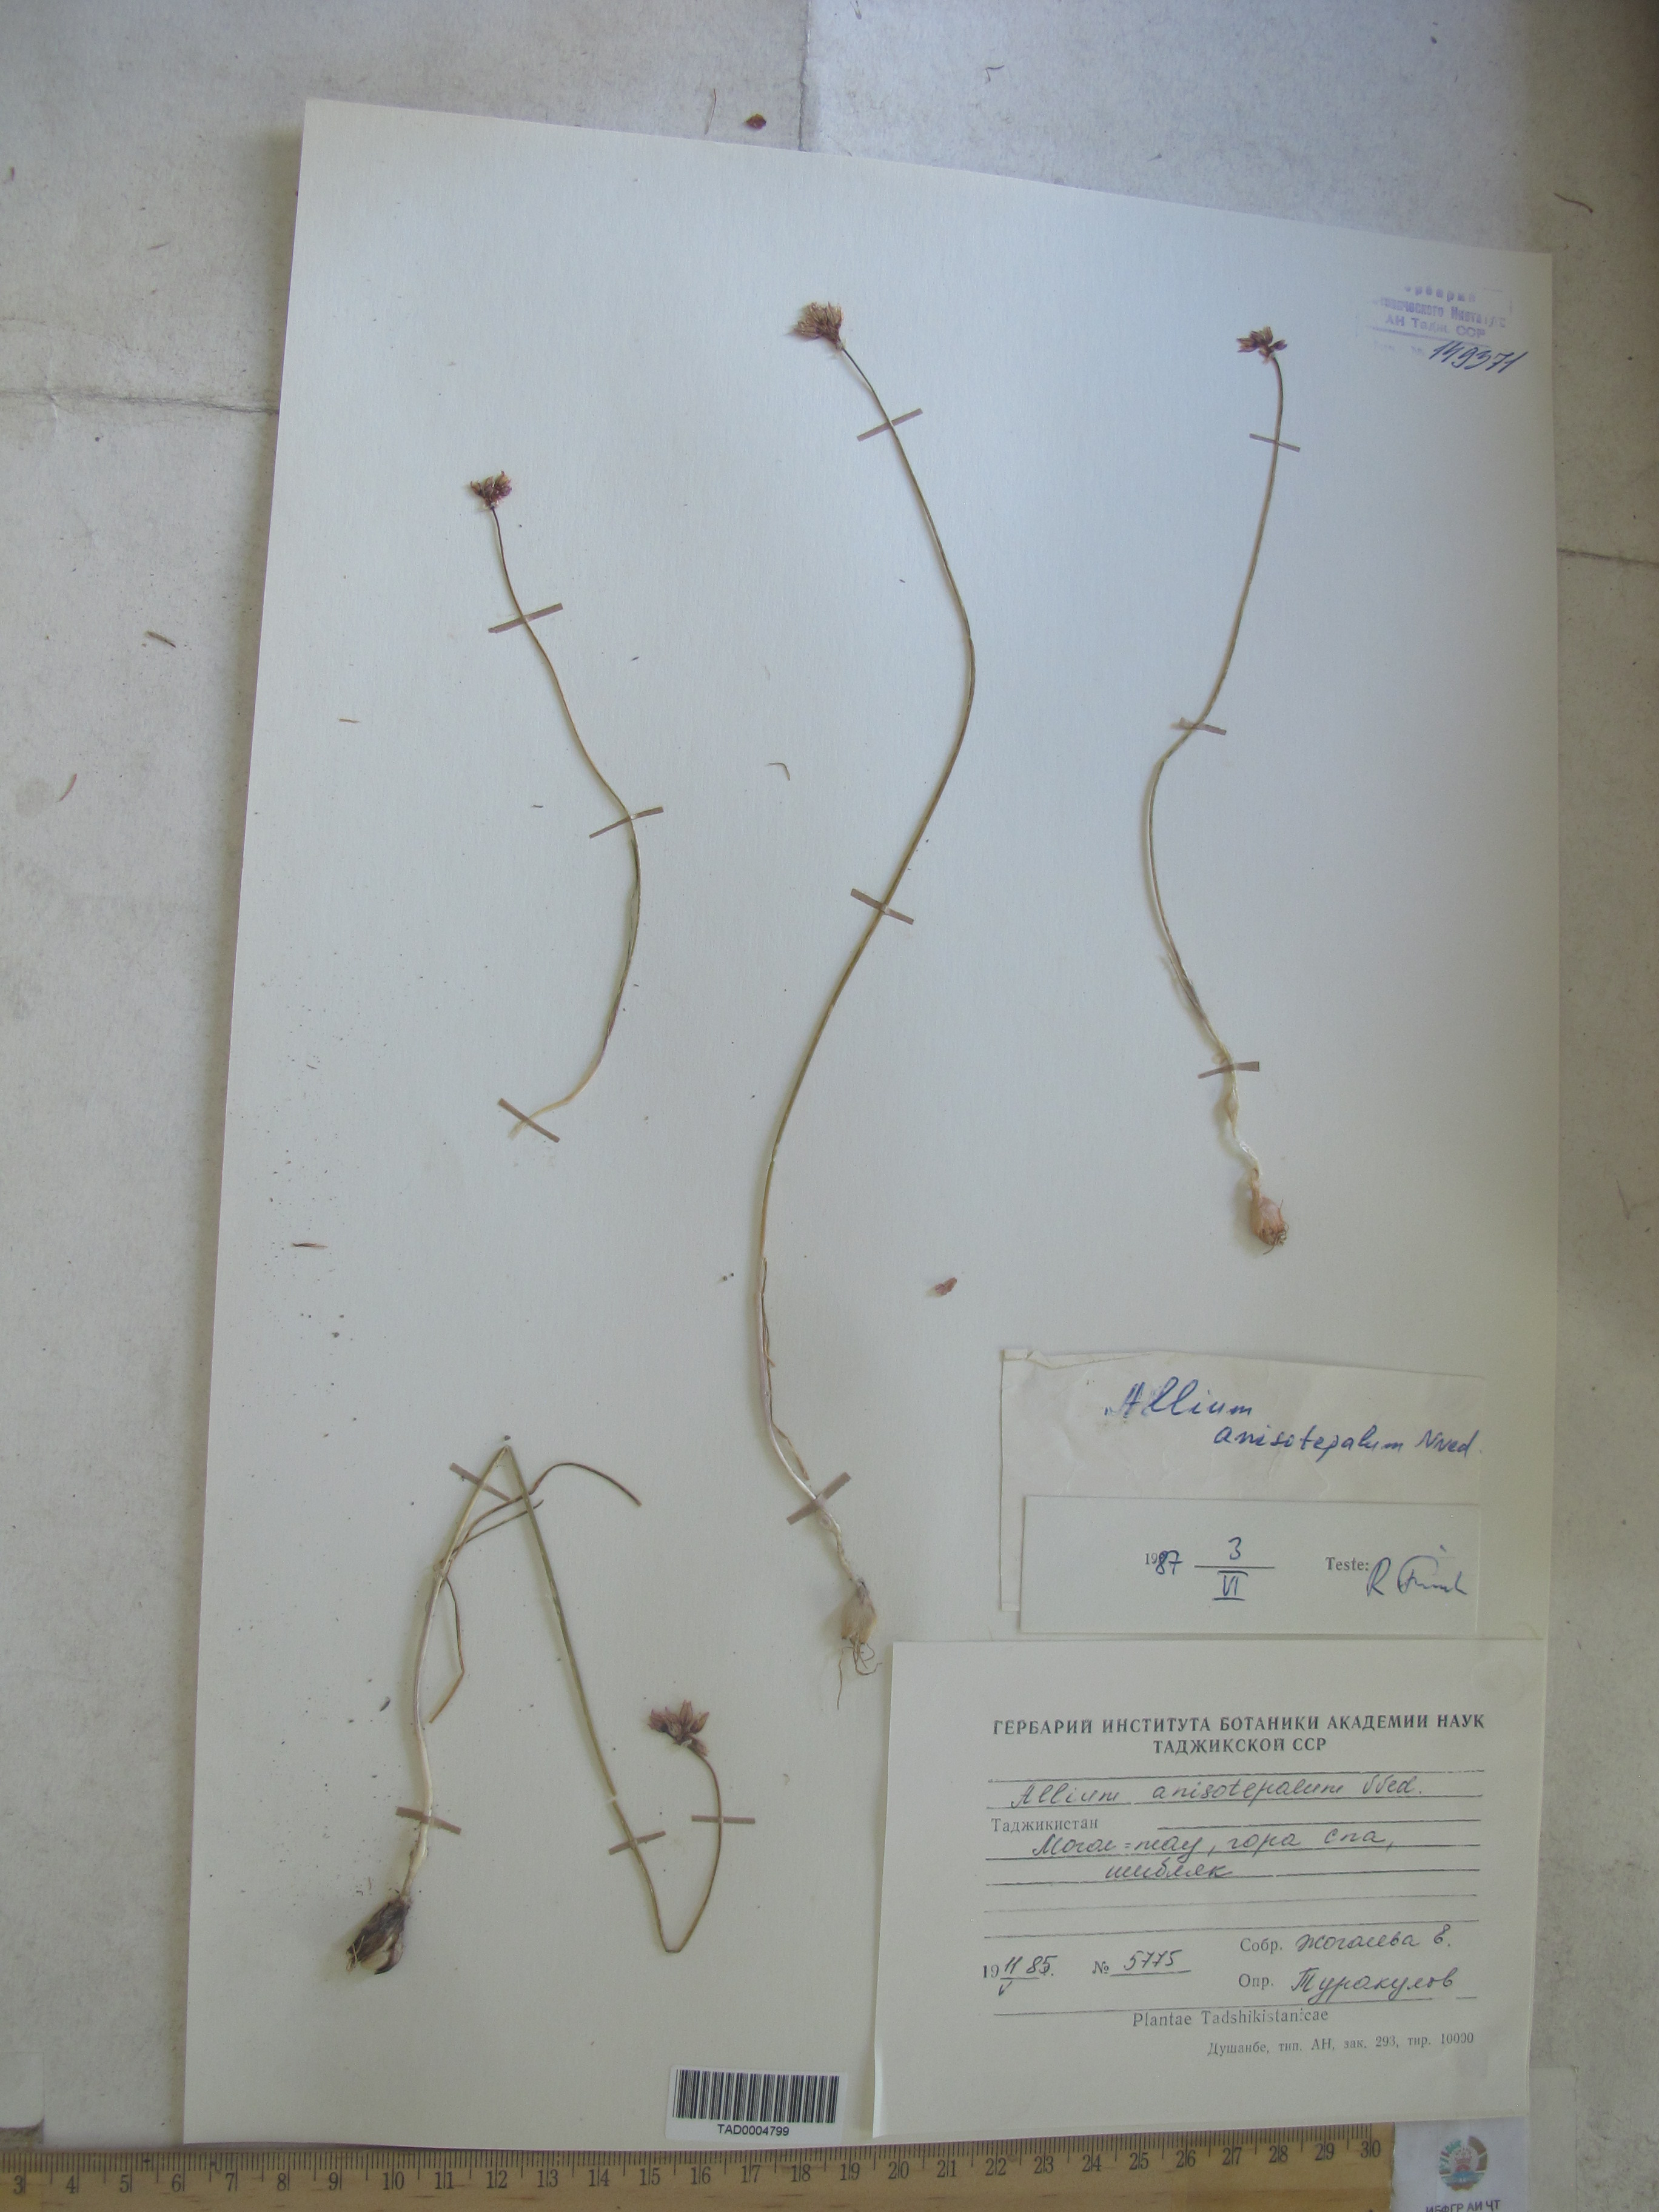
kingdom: Plantae
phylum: Tracheophyta
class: Liliopsida
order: Asparagales
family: Amaryllidaceae
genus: Allium
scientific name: Allium anisotepalum
